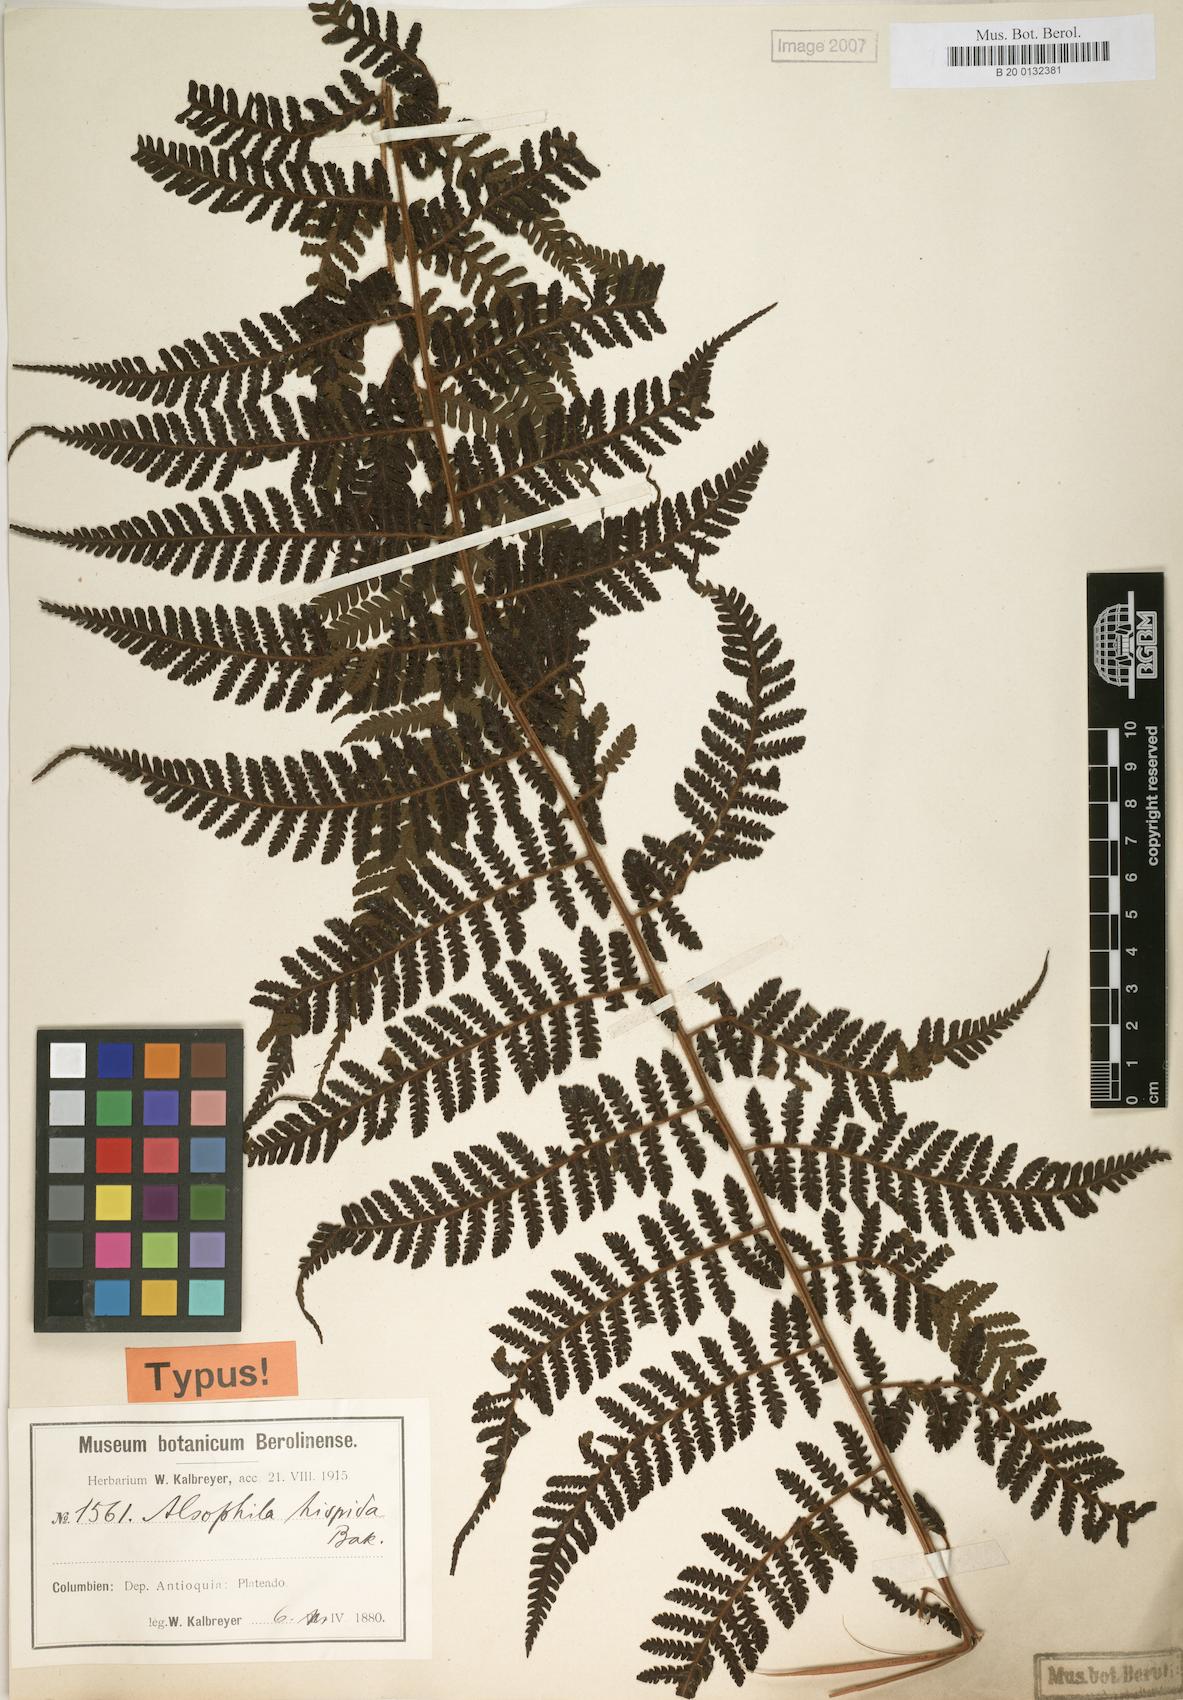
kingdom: Plantae
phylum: Tracheophyta
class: Polypodiopsida
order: Cyatheales
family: Cyatheaceae
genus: Alsophila
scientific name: Alsophila hispida
